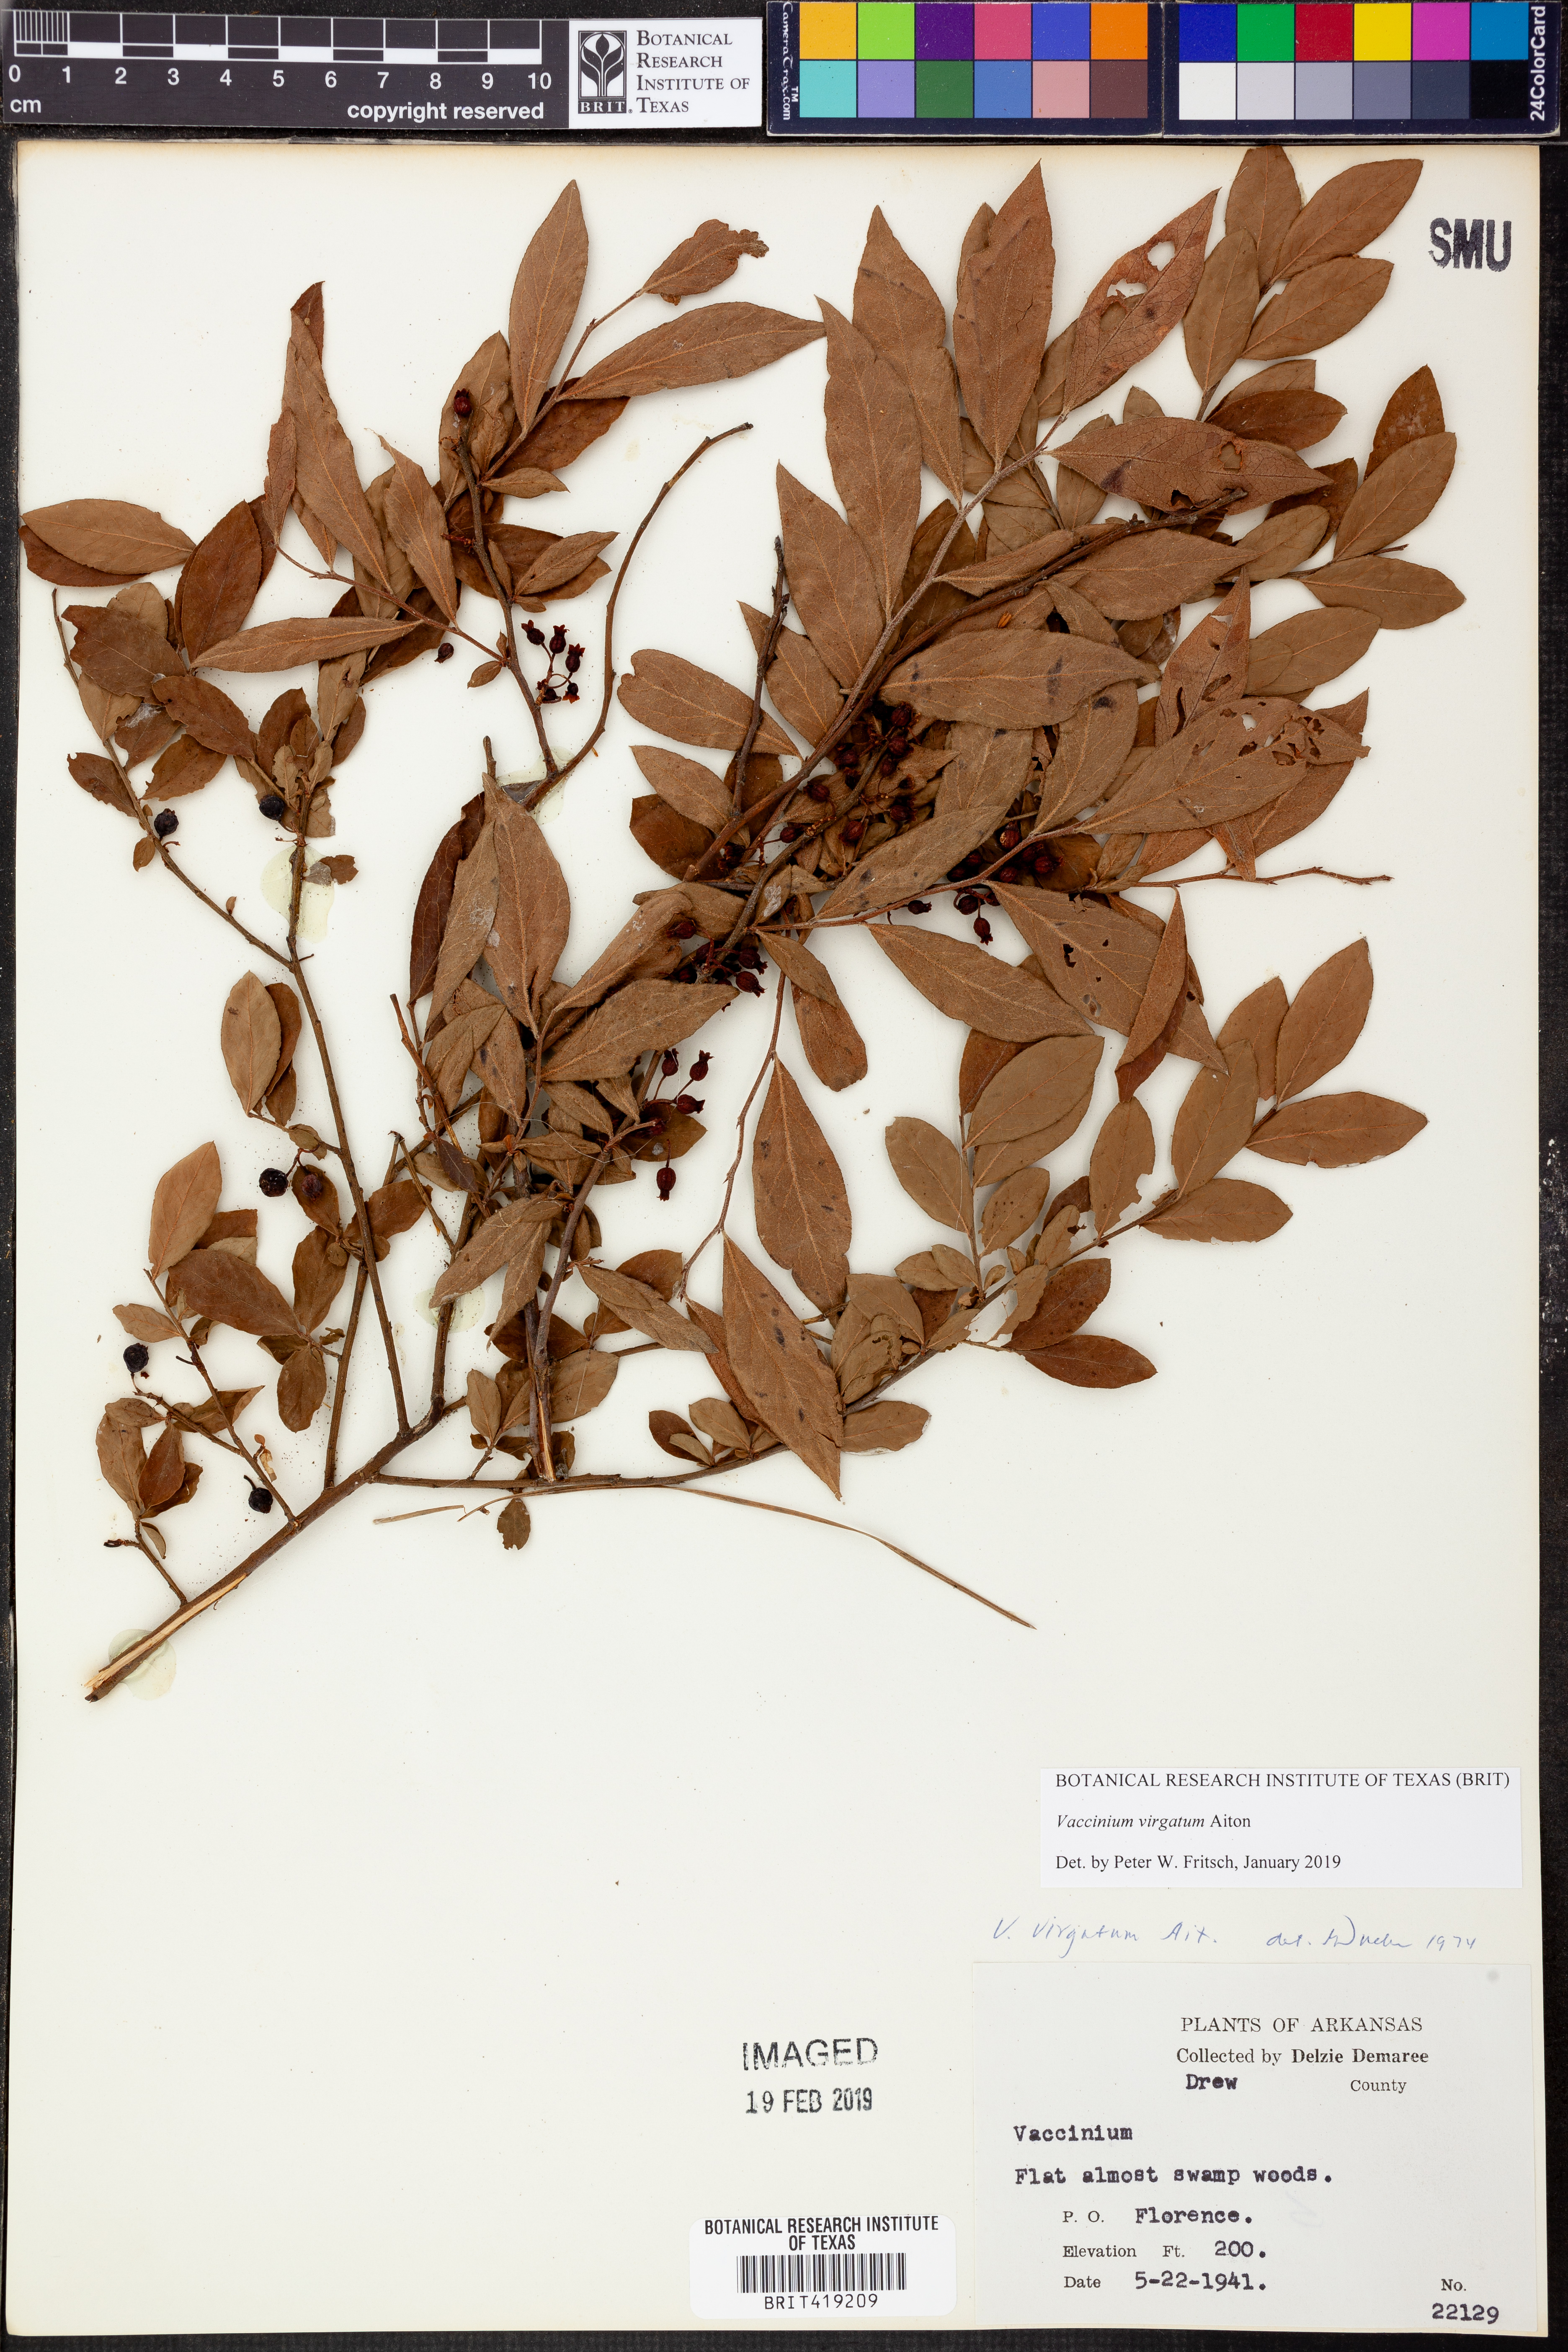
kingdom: Plantae
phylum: Tracheophyta
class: Magnoliopsida
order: Ericales
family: Ericaceae
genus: Vaccinium
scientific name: Vaccinium corymbosum
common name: Blueberry
